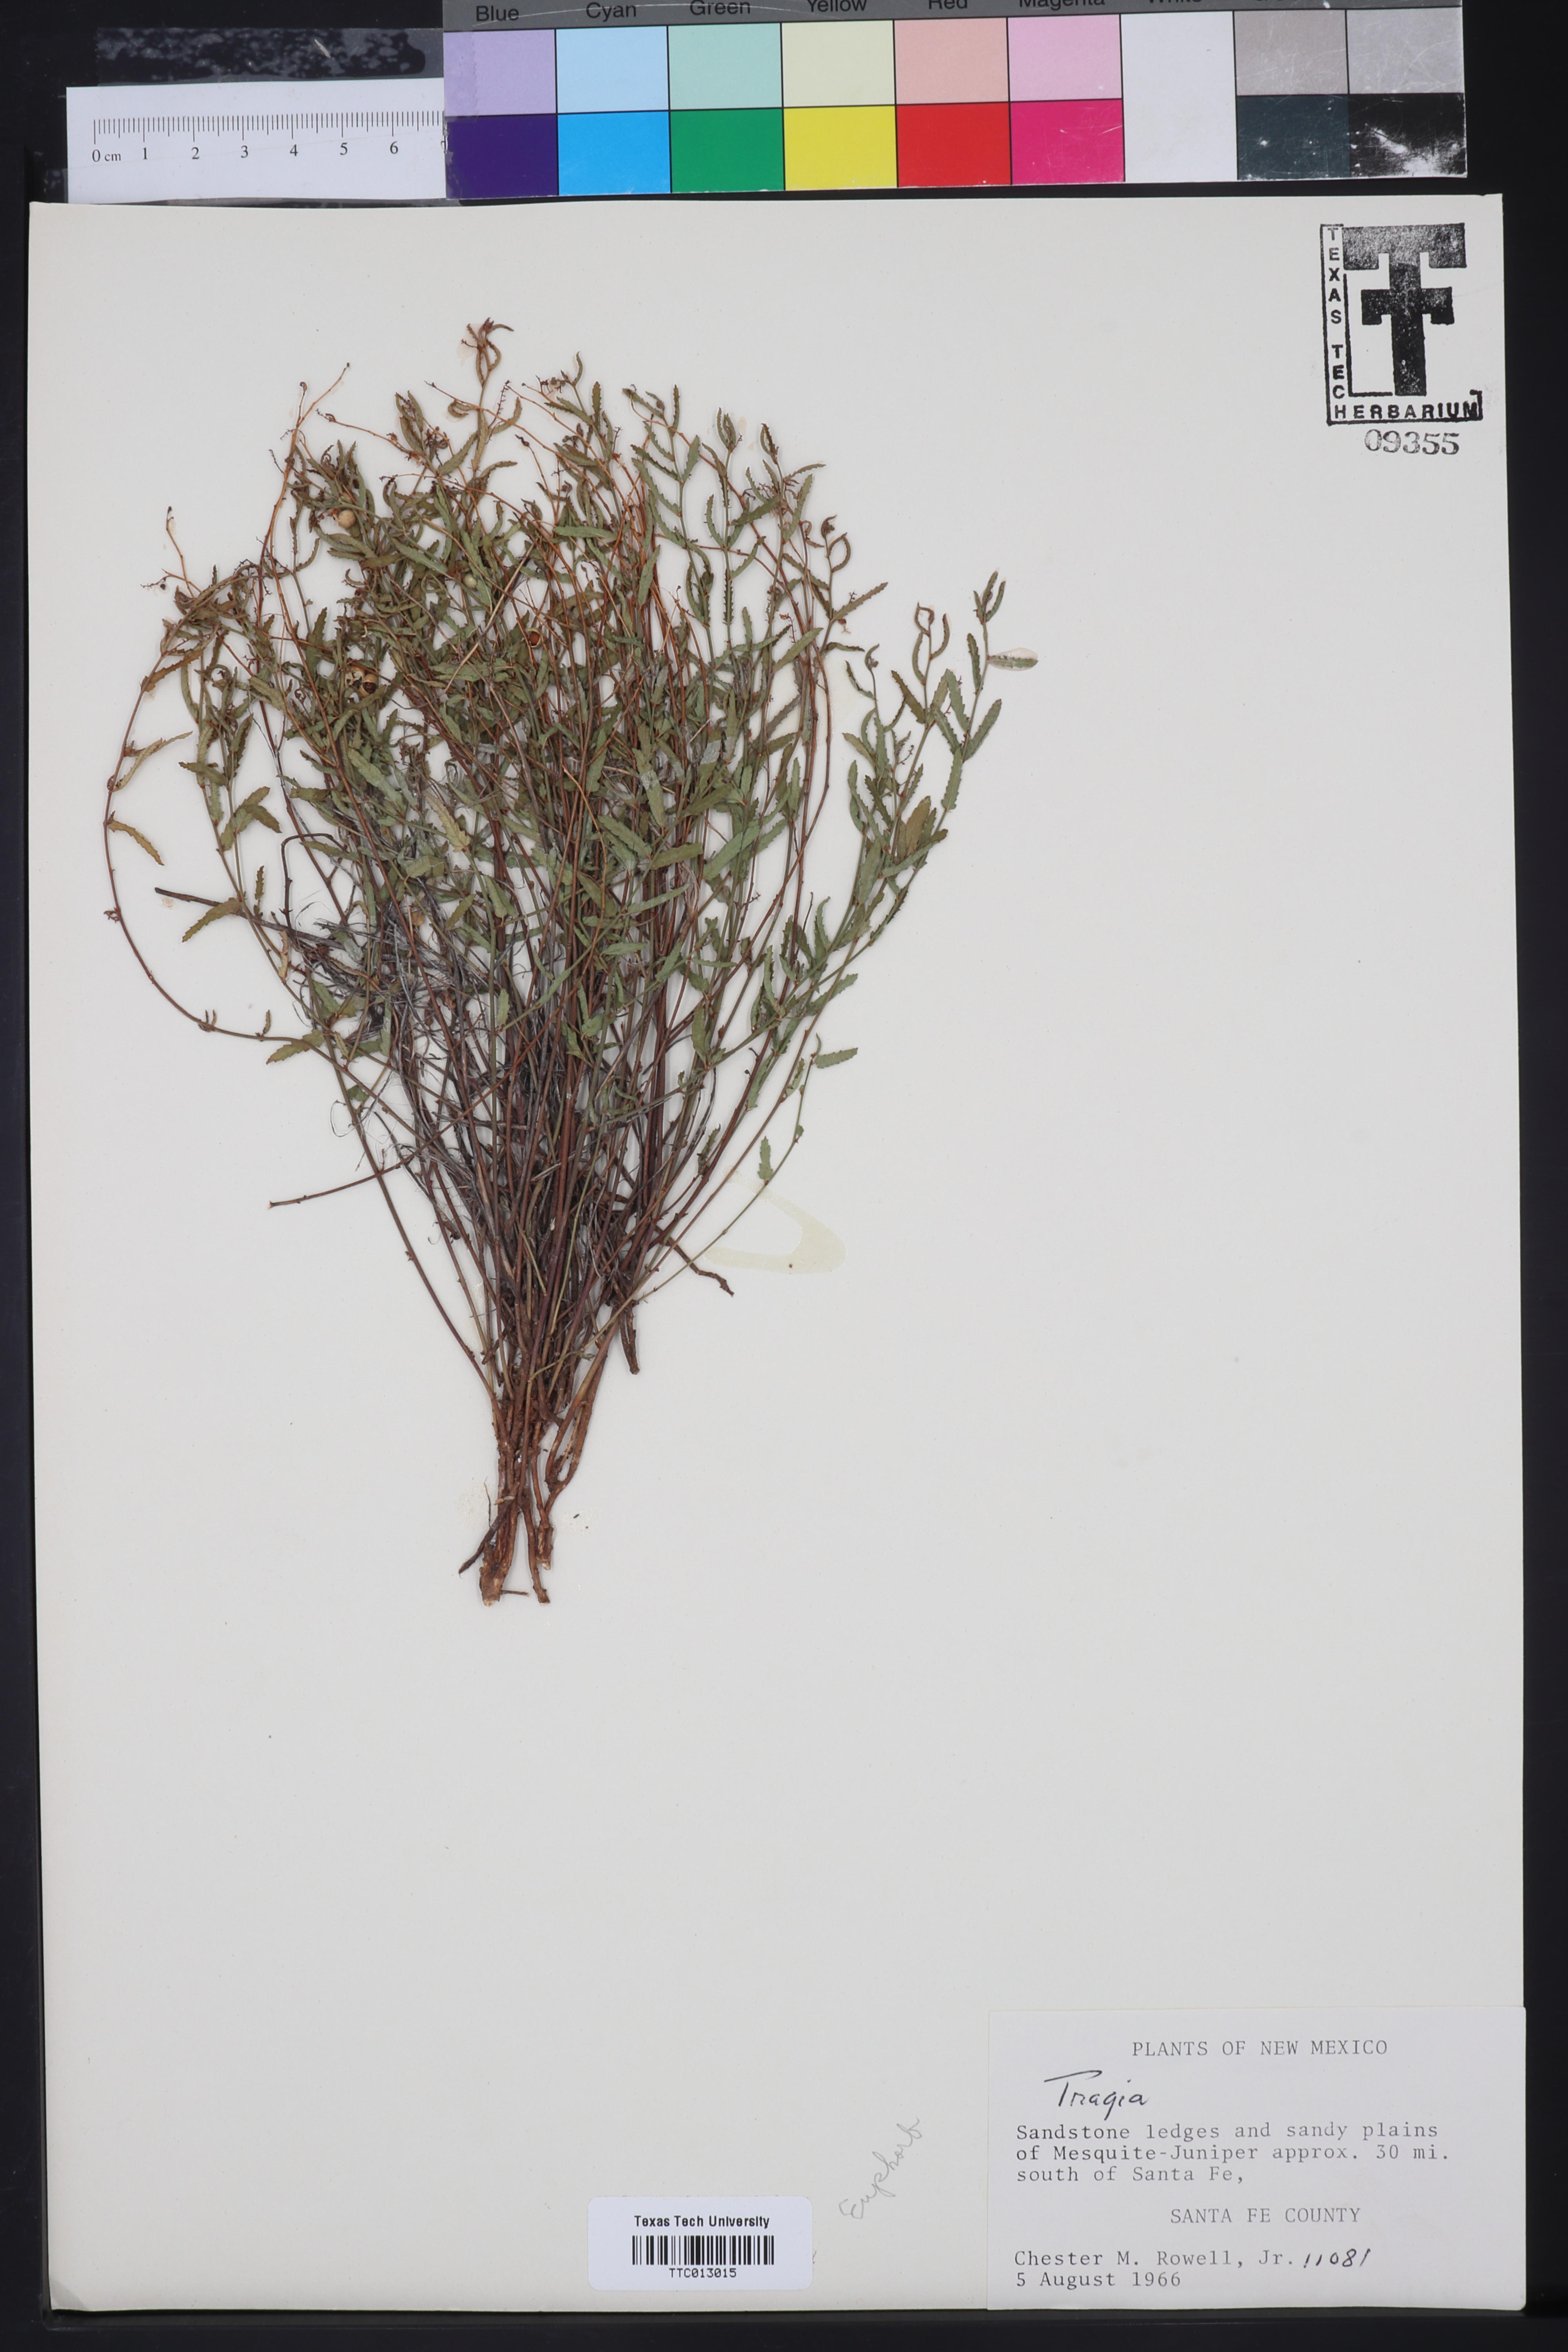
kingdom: Plantae
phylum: Tracheophyta
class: Magnoliopsida
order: Malpighiales
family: Euphorbiaceae
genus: Tragia
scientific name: Tragia ramosa
